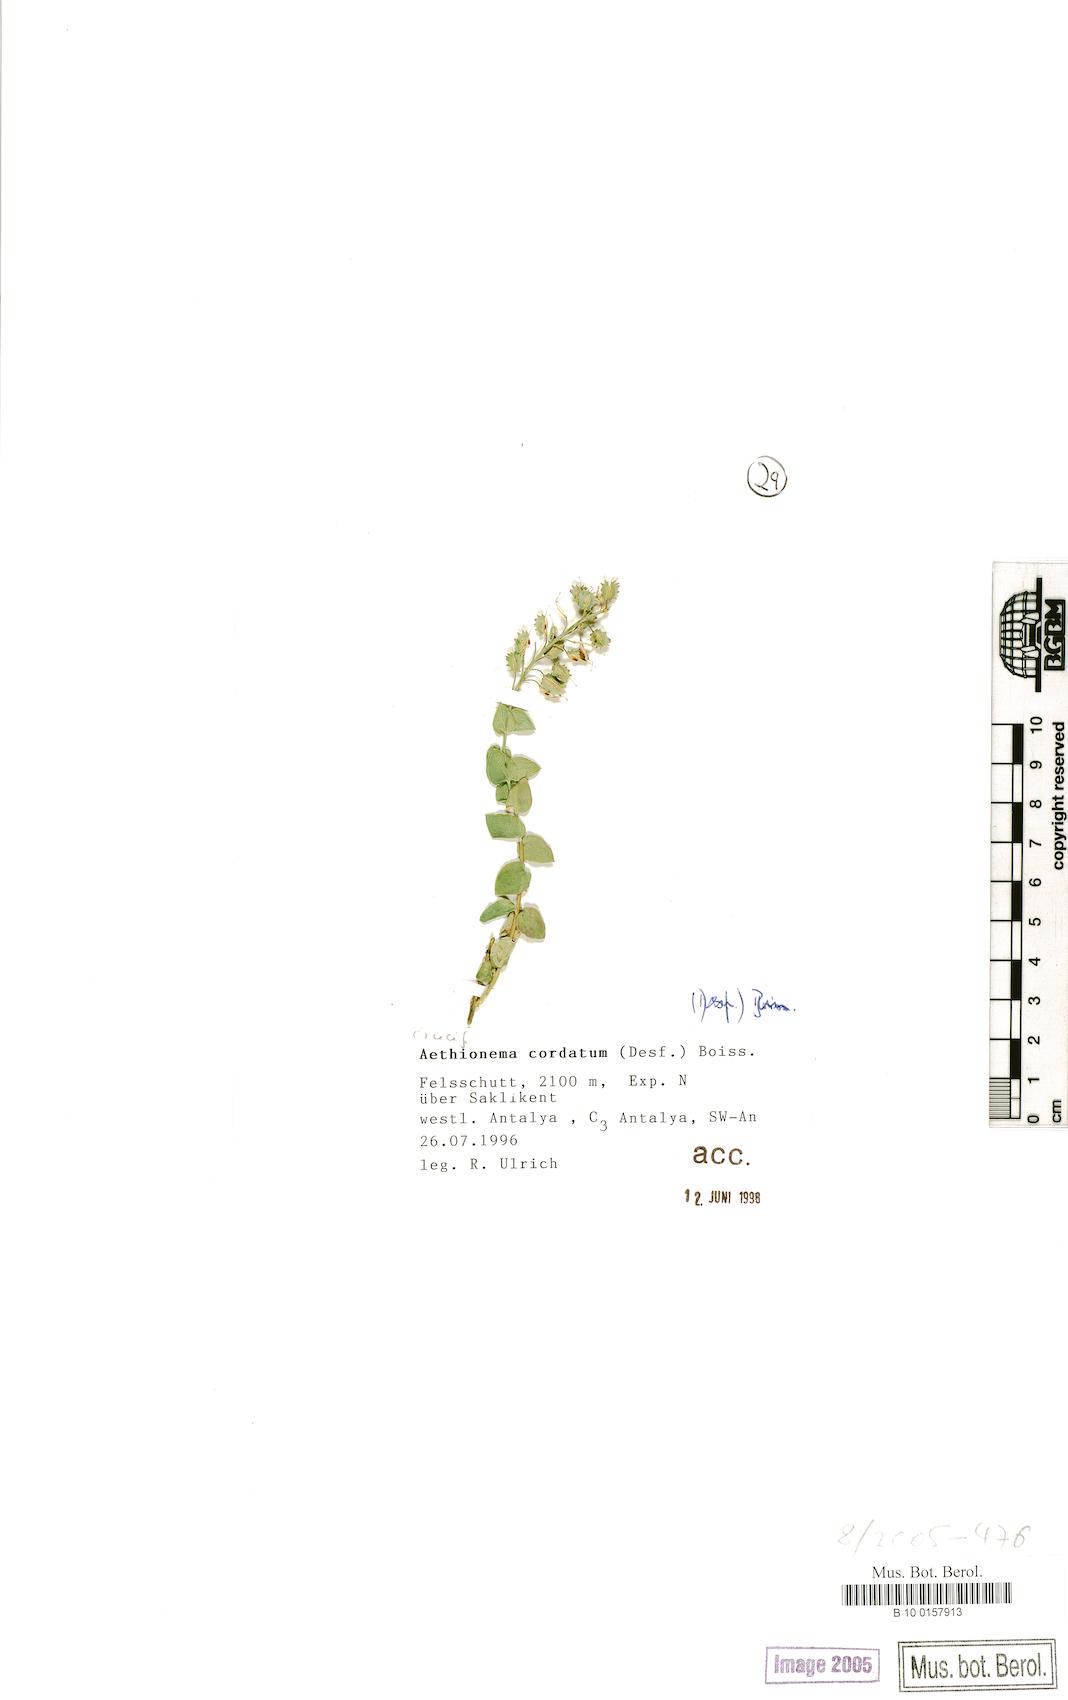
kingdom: Plantae
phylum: Tracheophyta
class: Magnoliopsida
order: Brassicales
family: Brassicaceae
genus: Aethionema
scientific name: Aethionema cordatum
